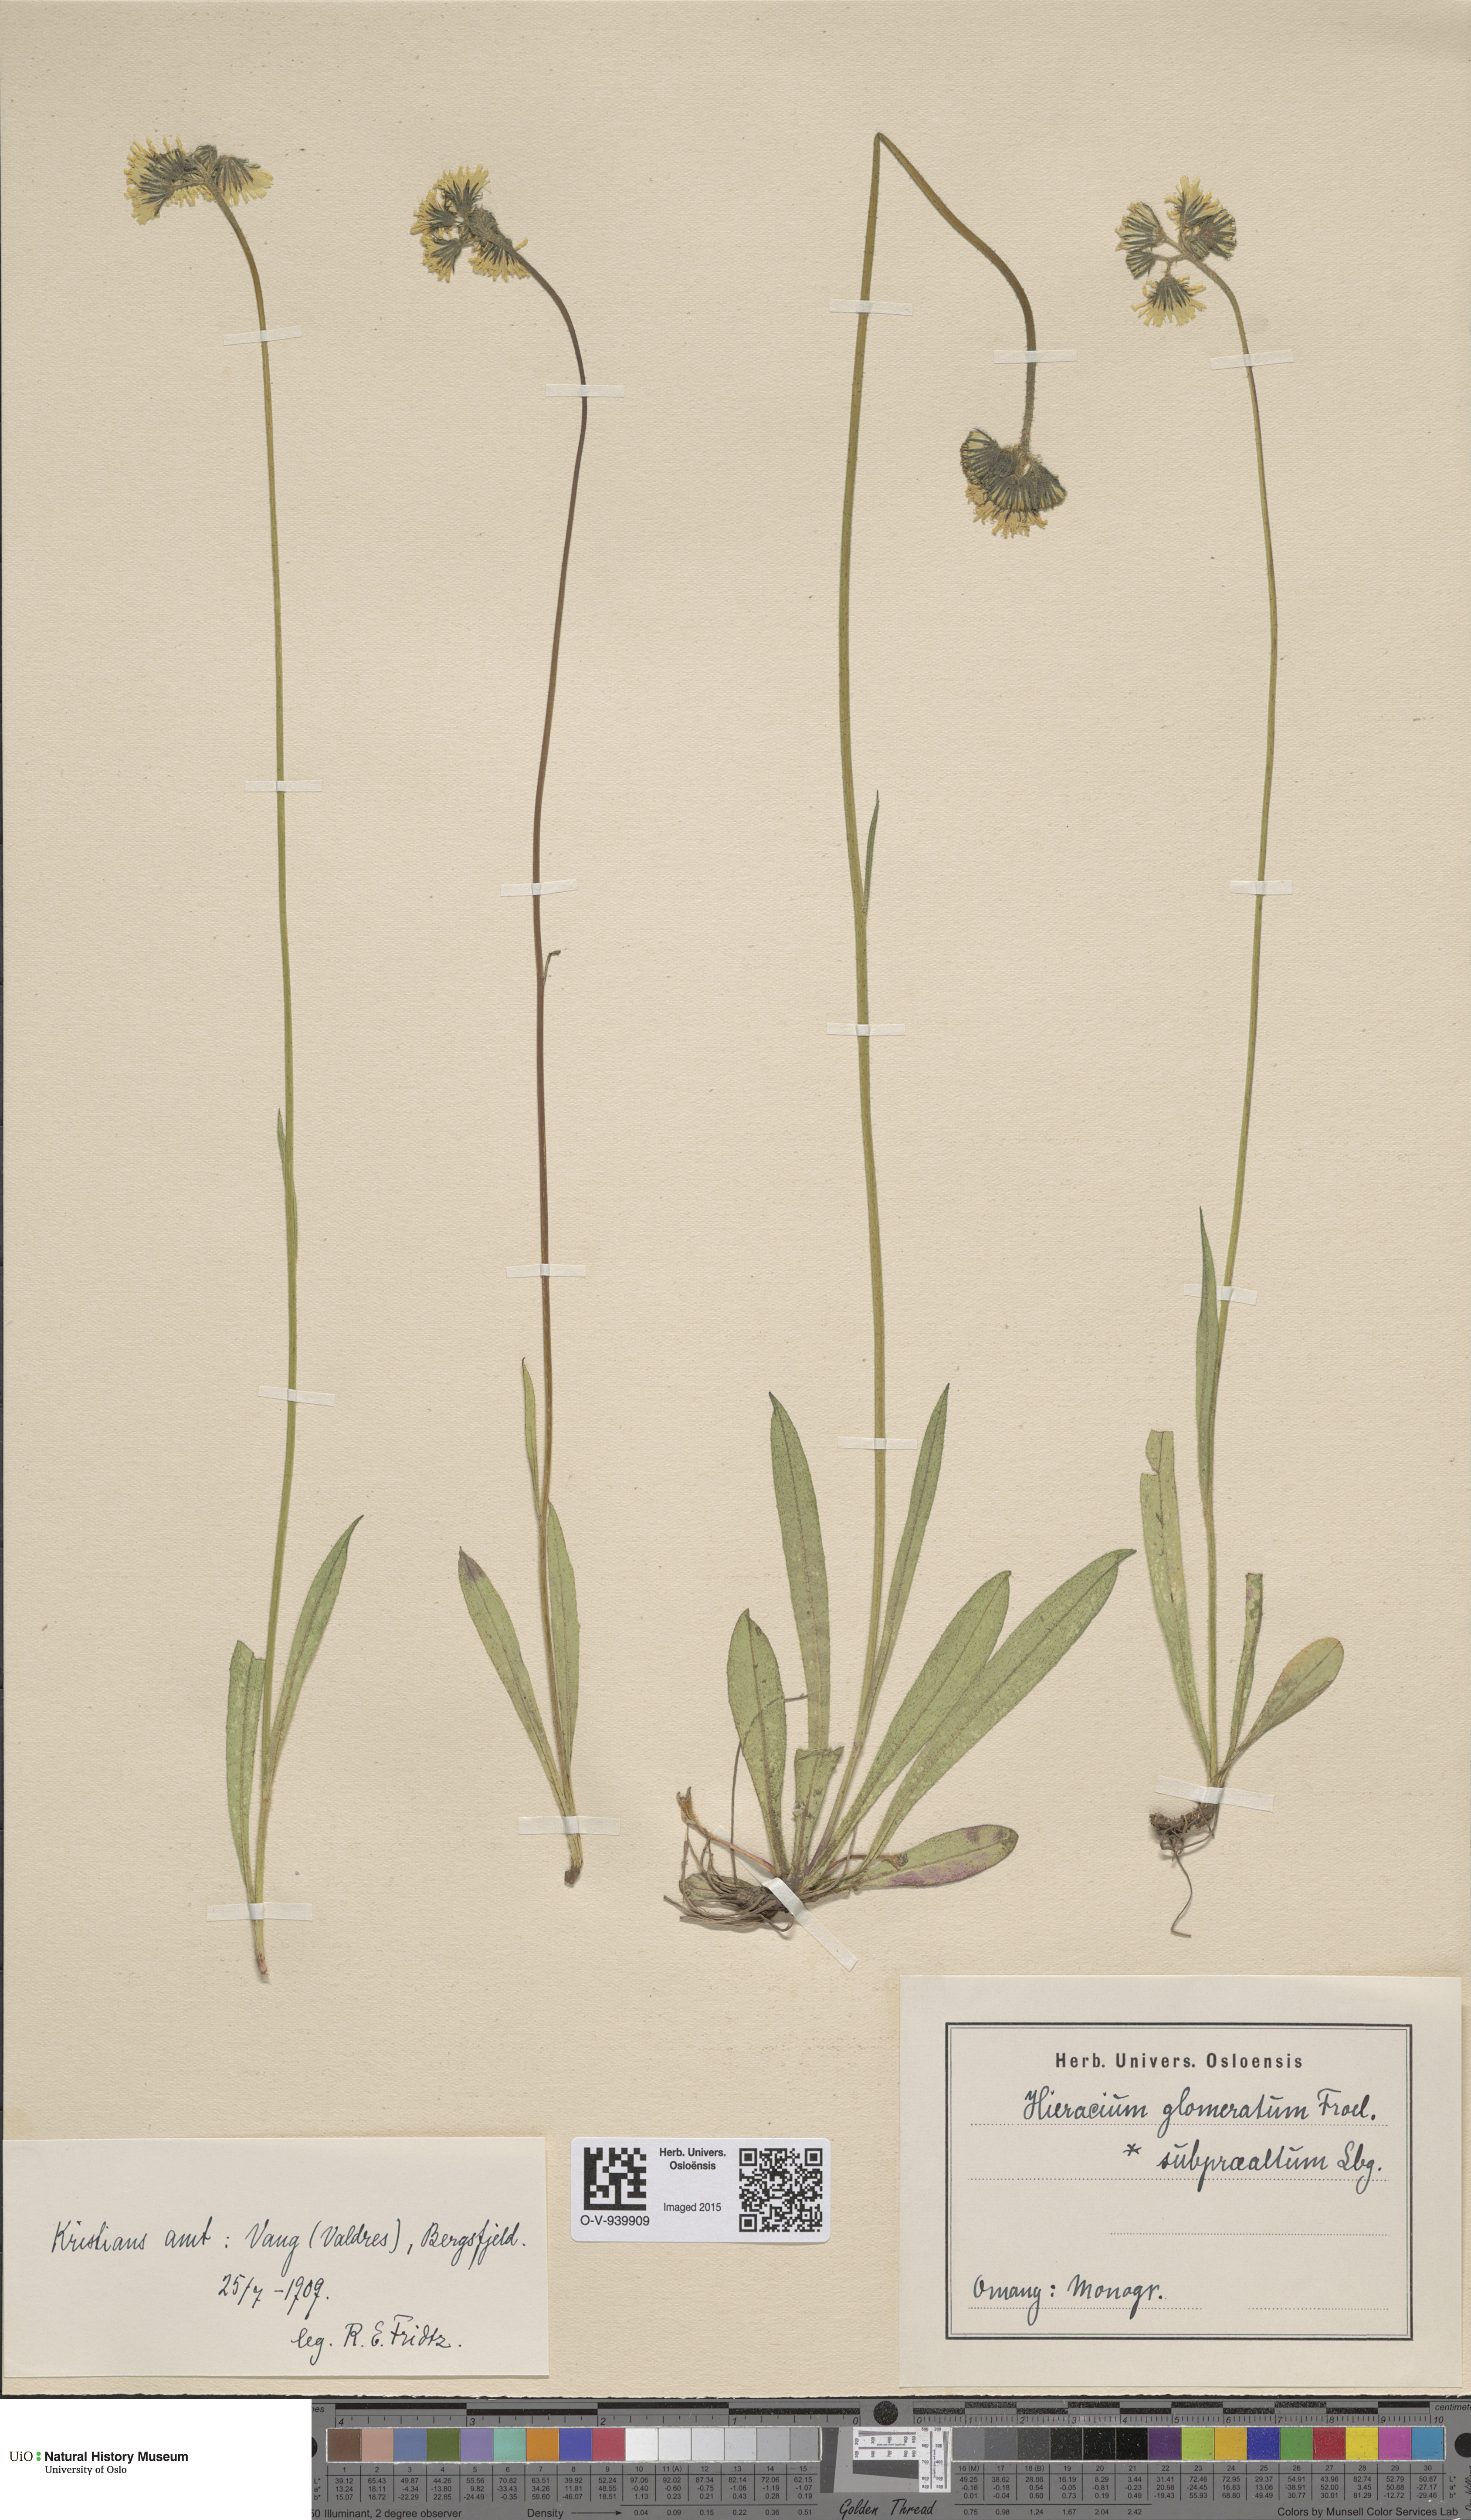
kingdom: Plantae
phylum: Tracheophyta
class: Magnoliopsida
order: Asterales
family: Asteraceae
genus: Pilosella
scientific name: Pilosella glomerata
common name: Queen devil hawkweed
